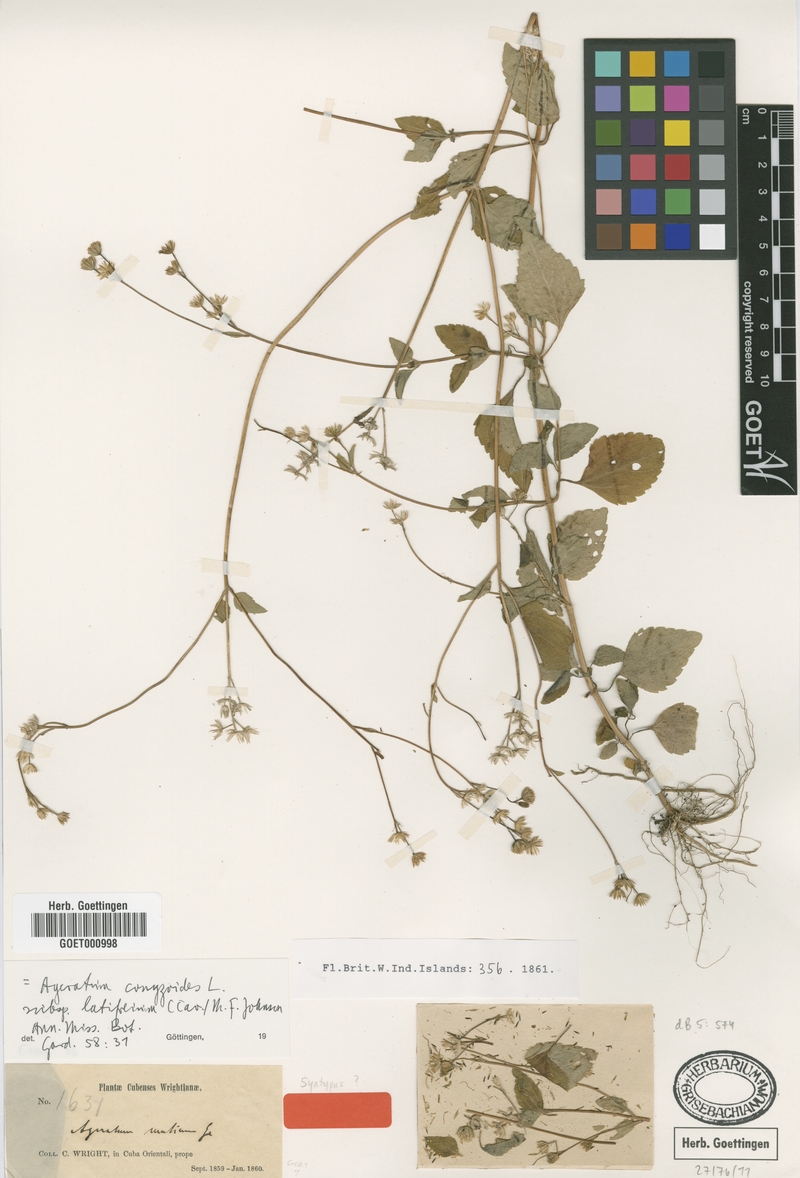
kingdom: Plantae
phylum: Tracheophyta
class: Magnoliopsida
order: Asterales
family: Asteraceae
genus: Ageratum
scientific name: Ageratum oerstedii
